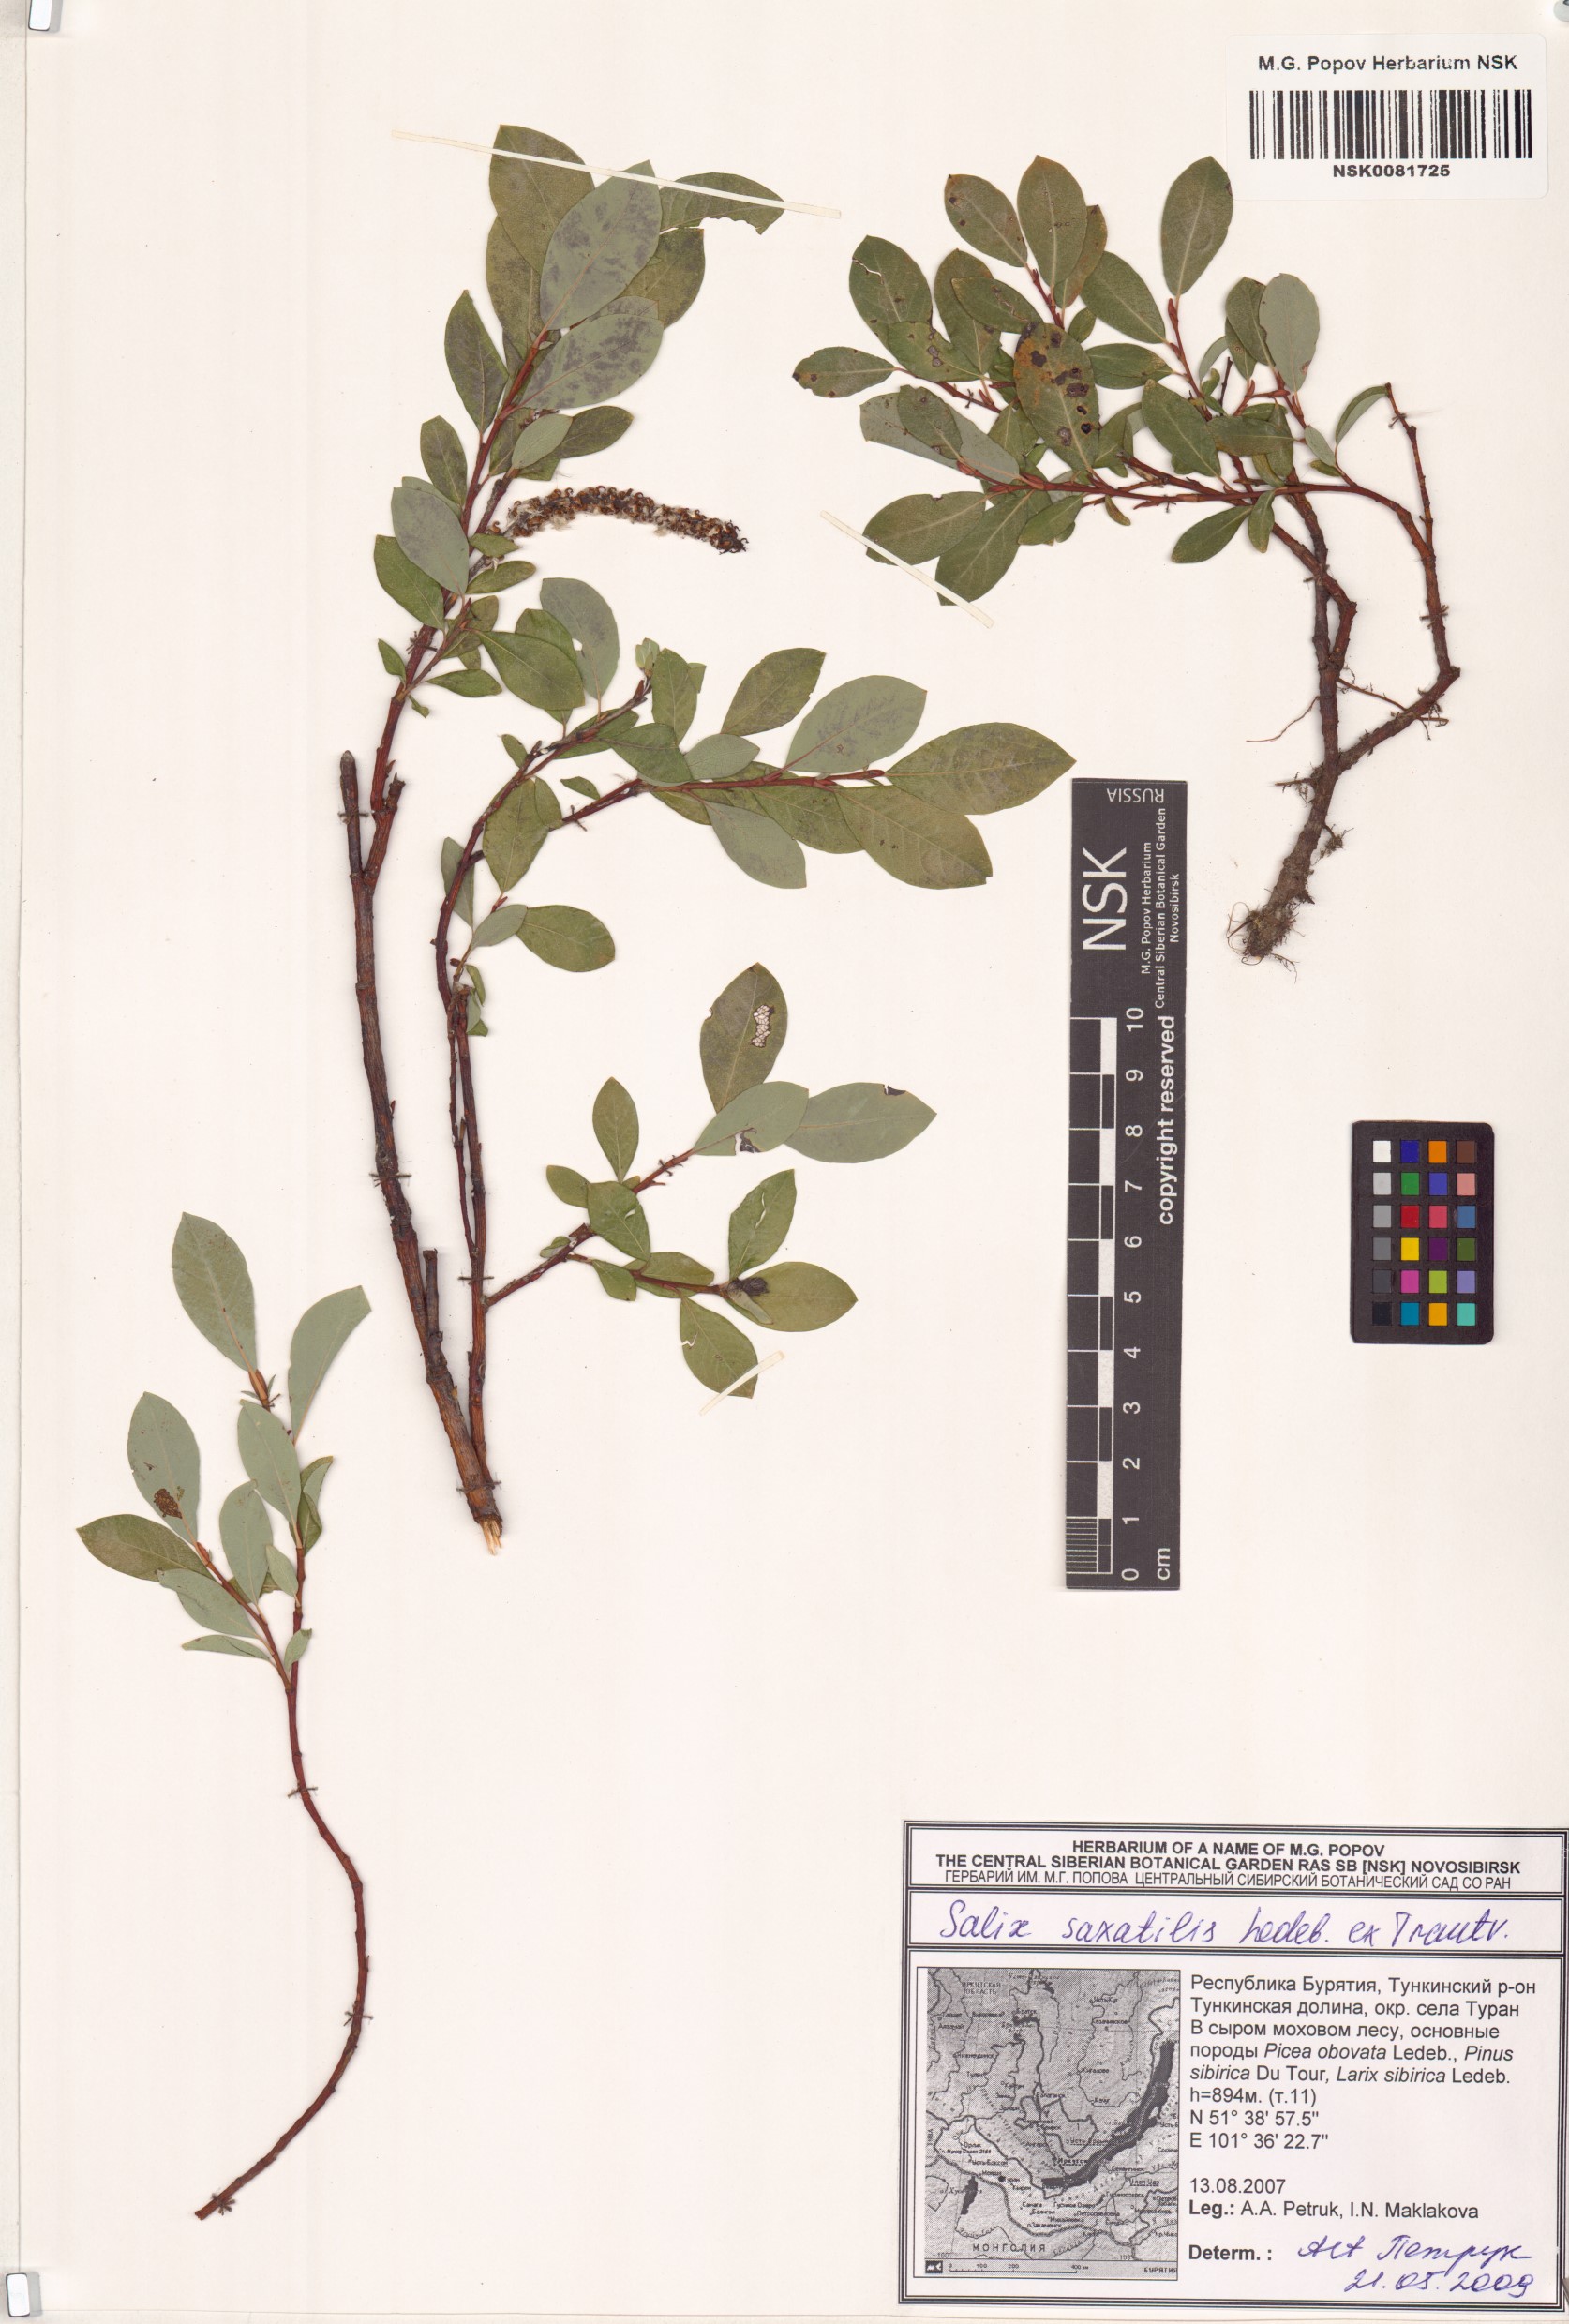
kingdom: Plantae
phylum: Tracheophyta
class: Magnoliopsida
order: Malpighiales
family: Salicaceae
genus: Salix
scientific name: Salix saxatilis
